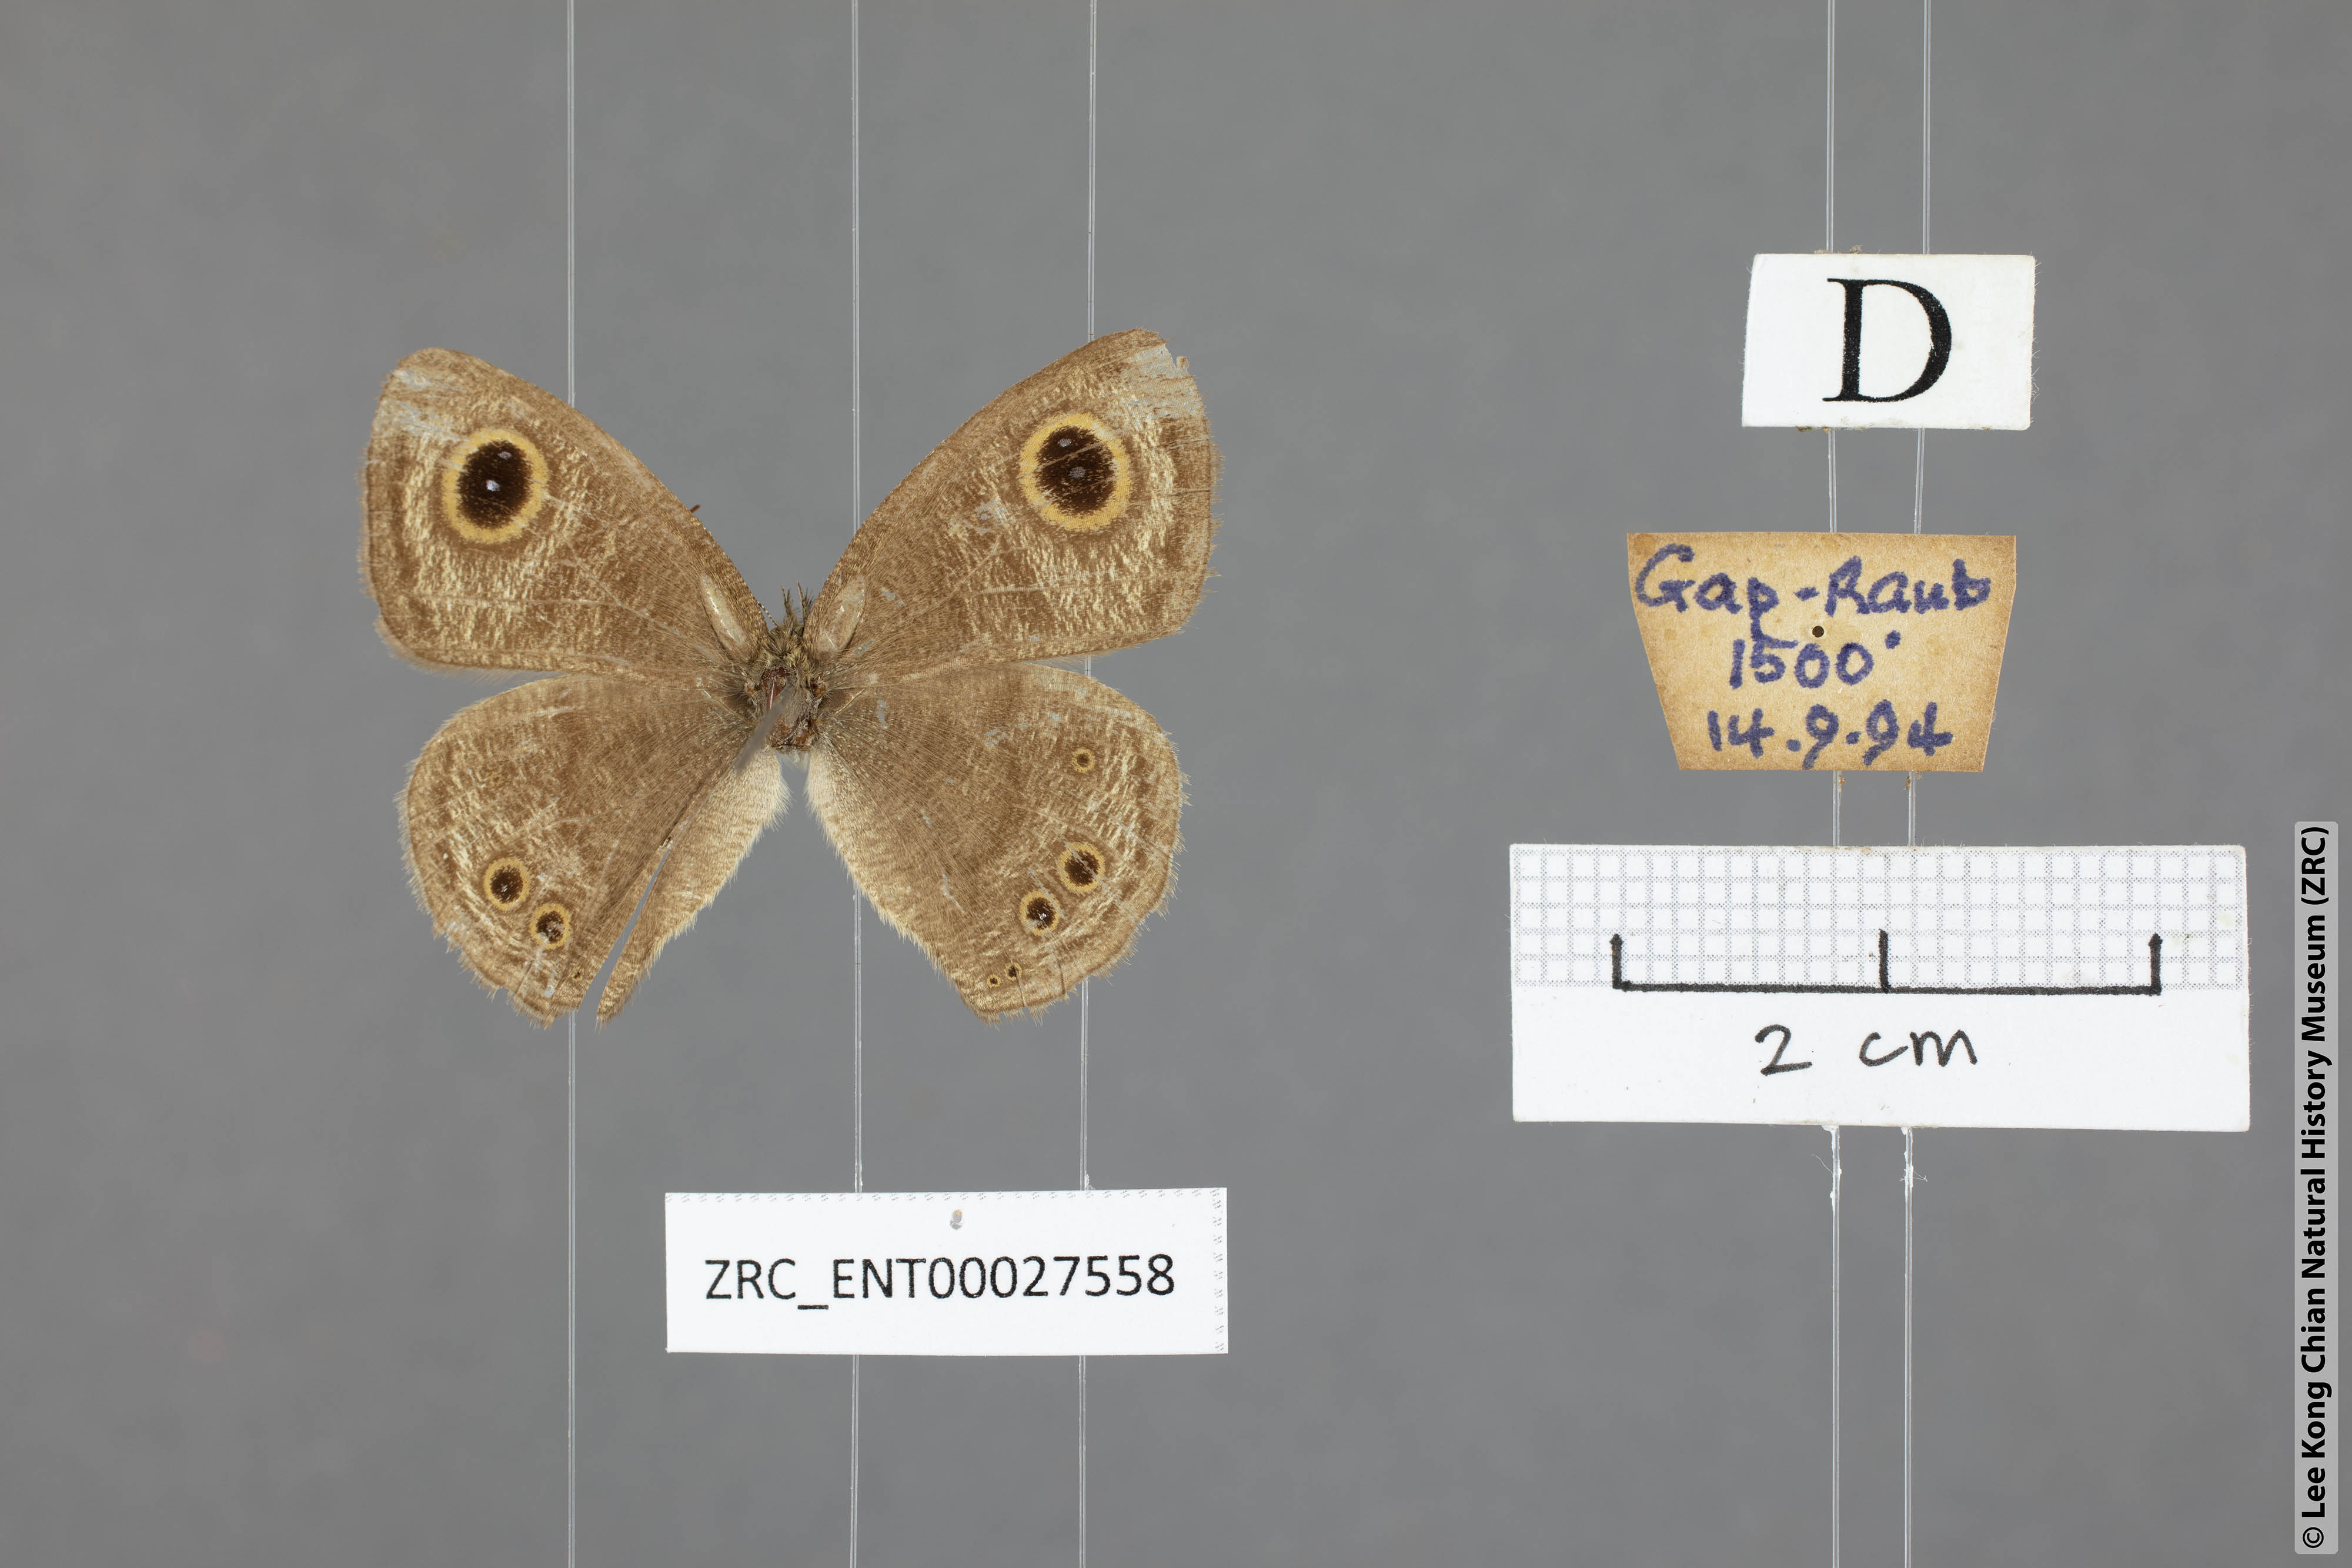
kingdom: Animalia
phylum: Arthropoda
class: Insecta
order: Lepidoptera
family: Nymphalidae
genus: Ypthima
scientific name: Ypthima baldus
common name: Common five-ring
